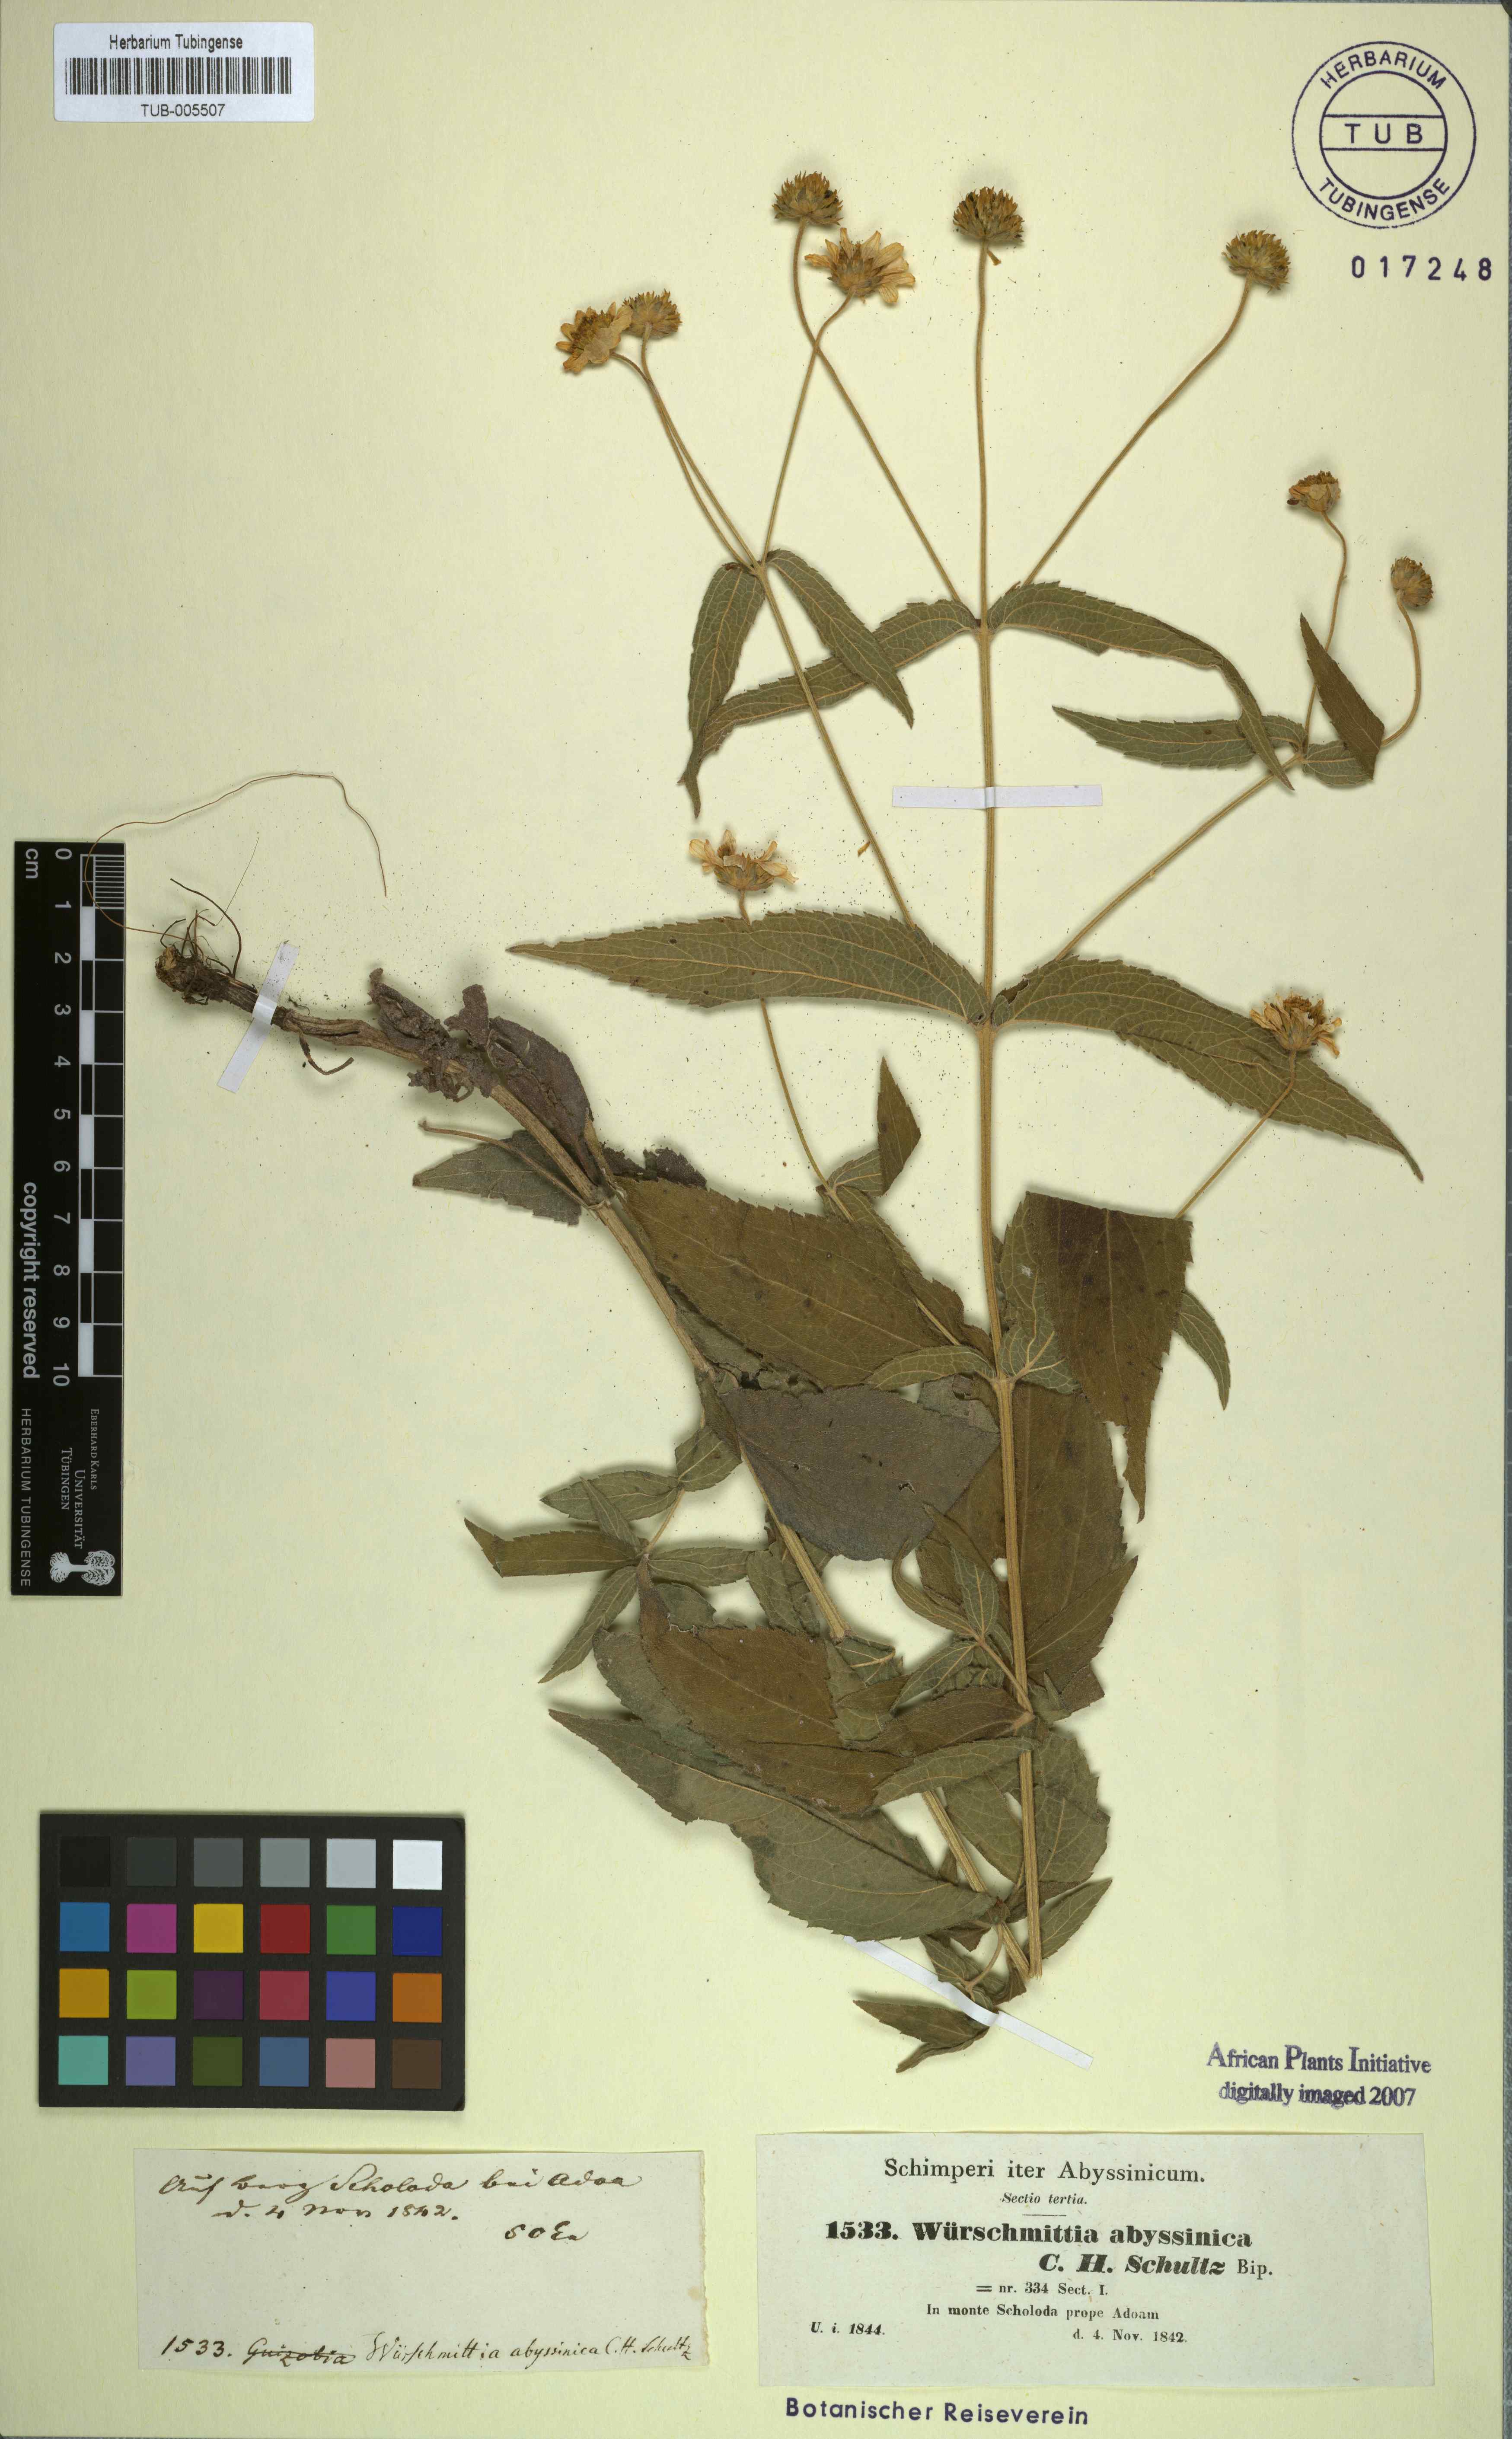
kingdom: Plantae
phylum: Tracheophyta
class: Magnoliopsida
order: Asterales
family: Asteraceae
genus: Lipotriche
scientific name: Lipotriche abyssinica
